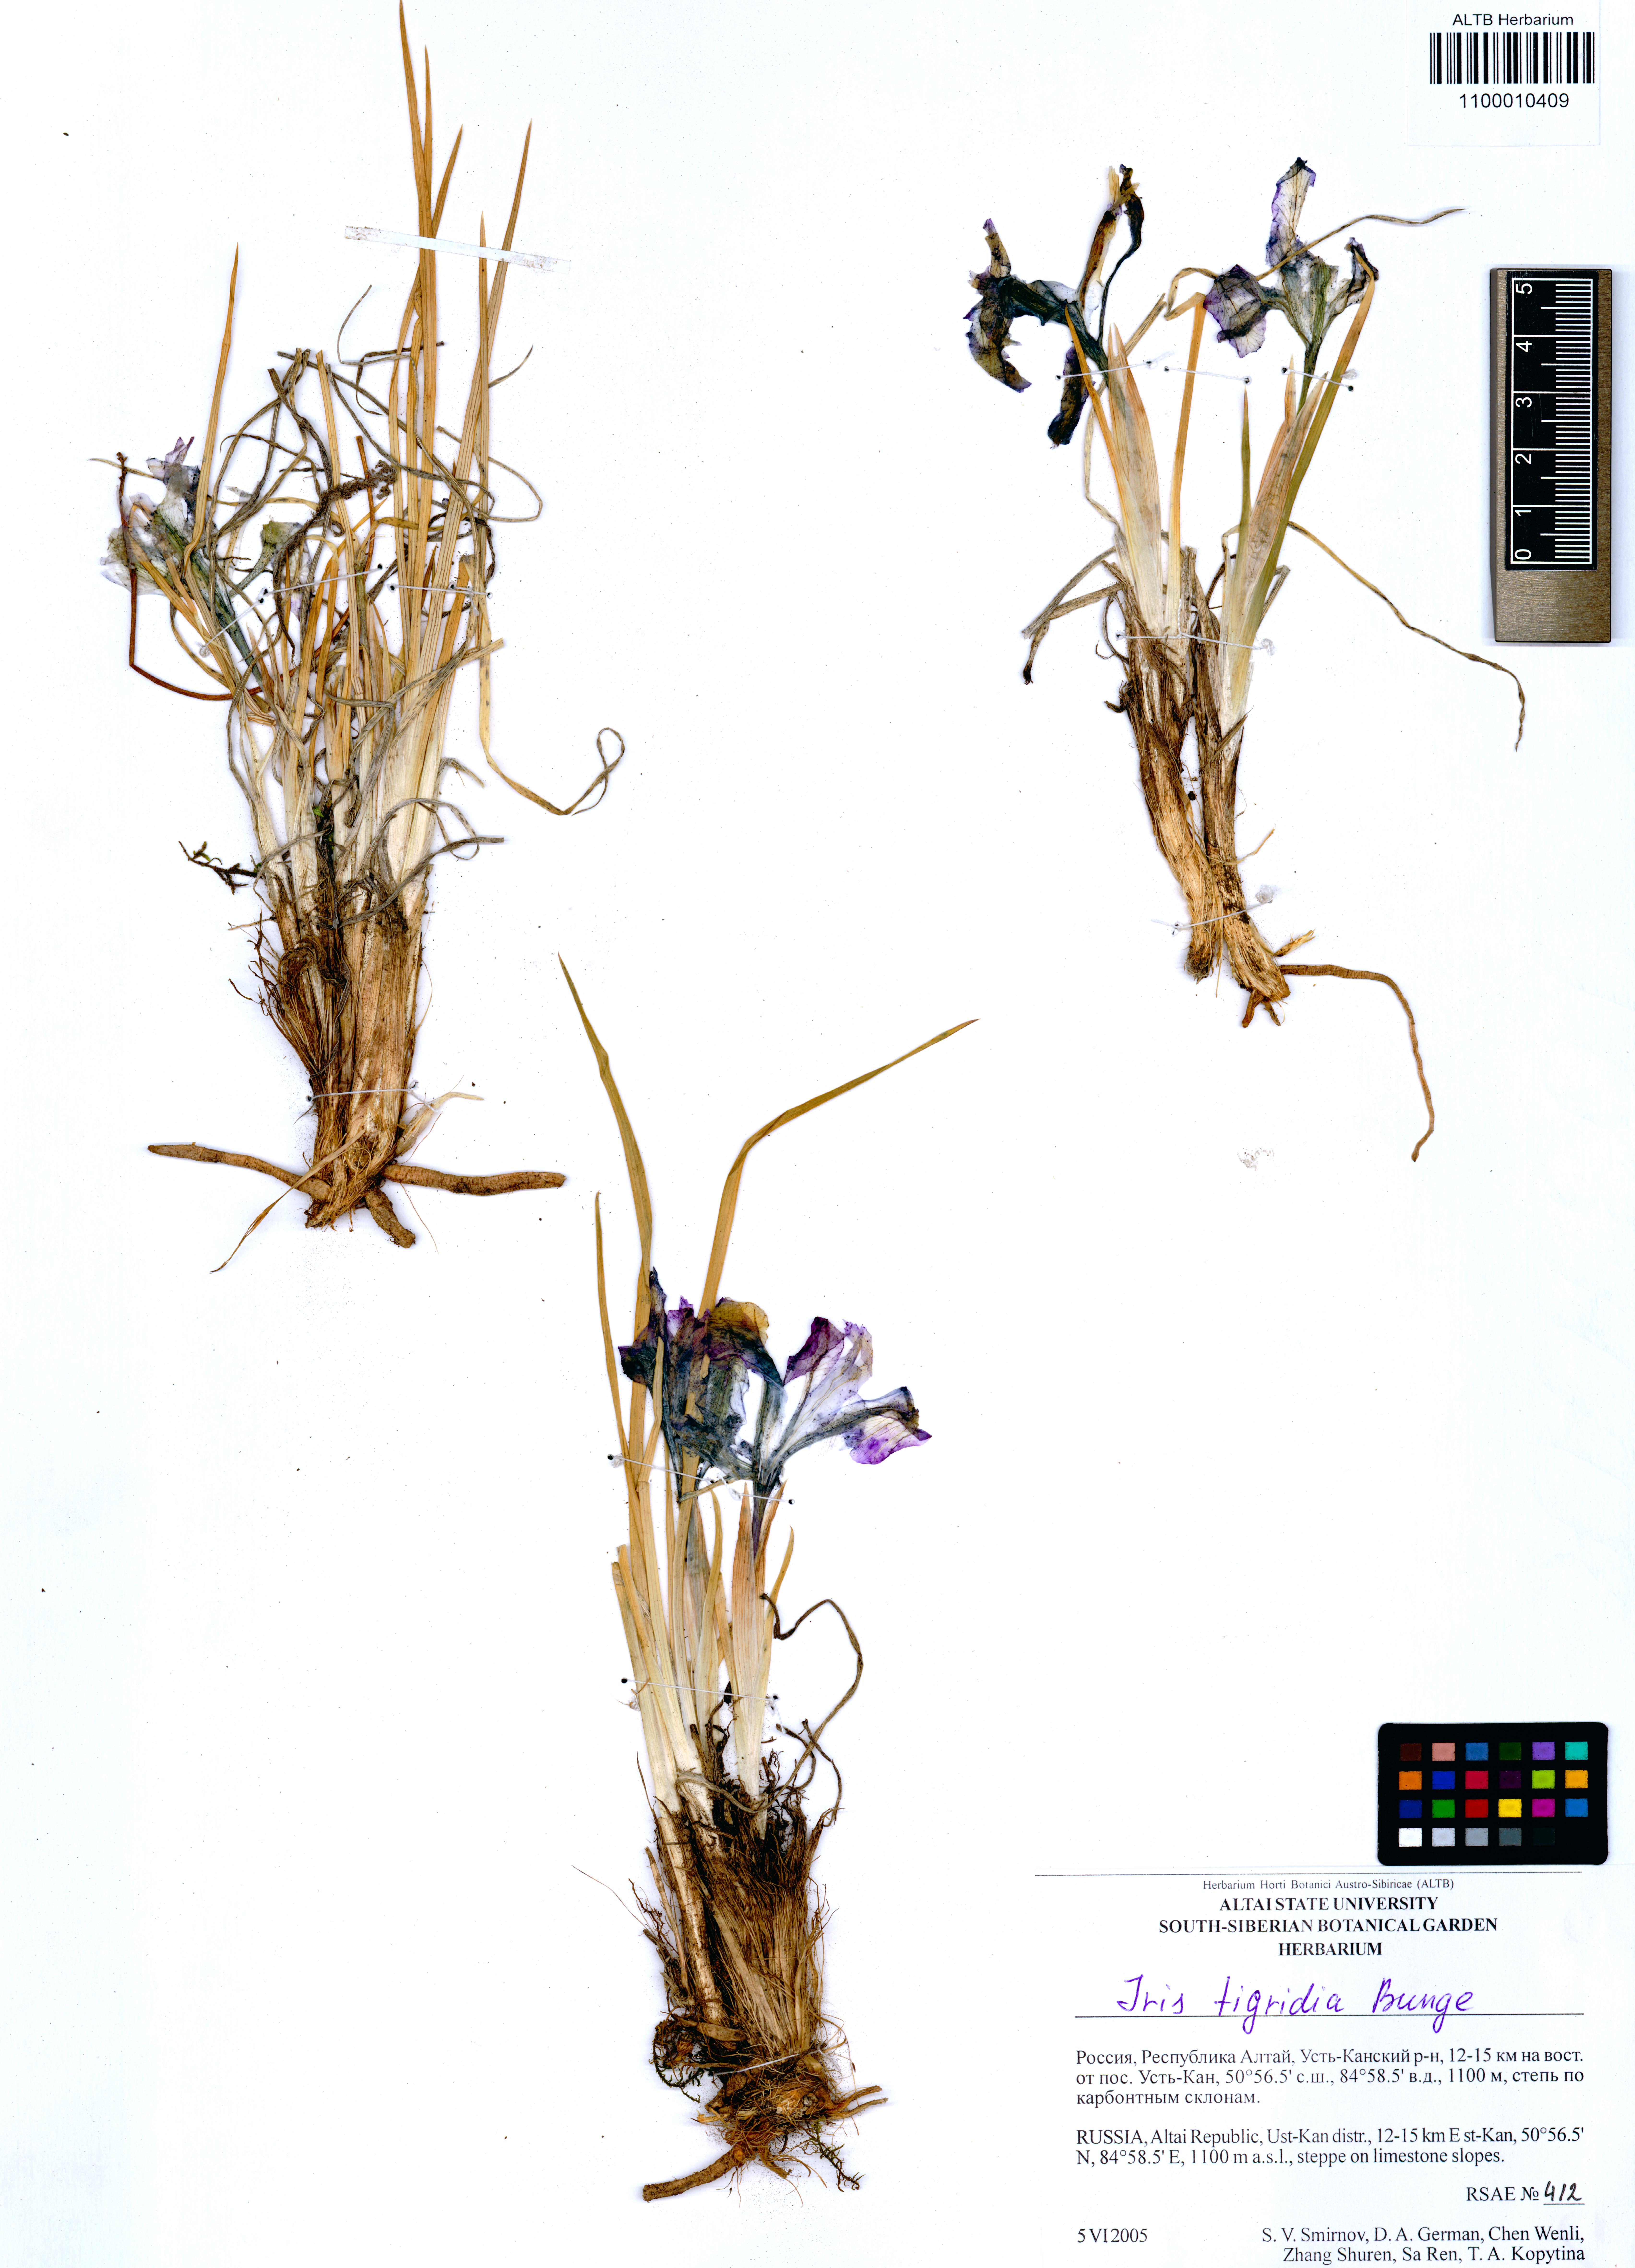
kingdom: Plantae
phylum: Tracheophyta
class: Liliopsida
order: Asparagales
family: Iridaceae
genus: Iris
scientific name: Iris tigridia
